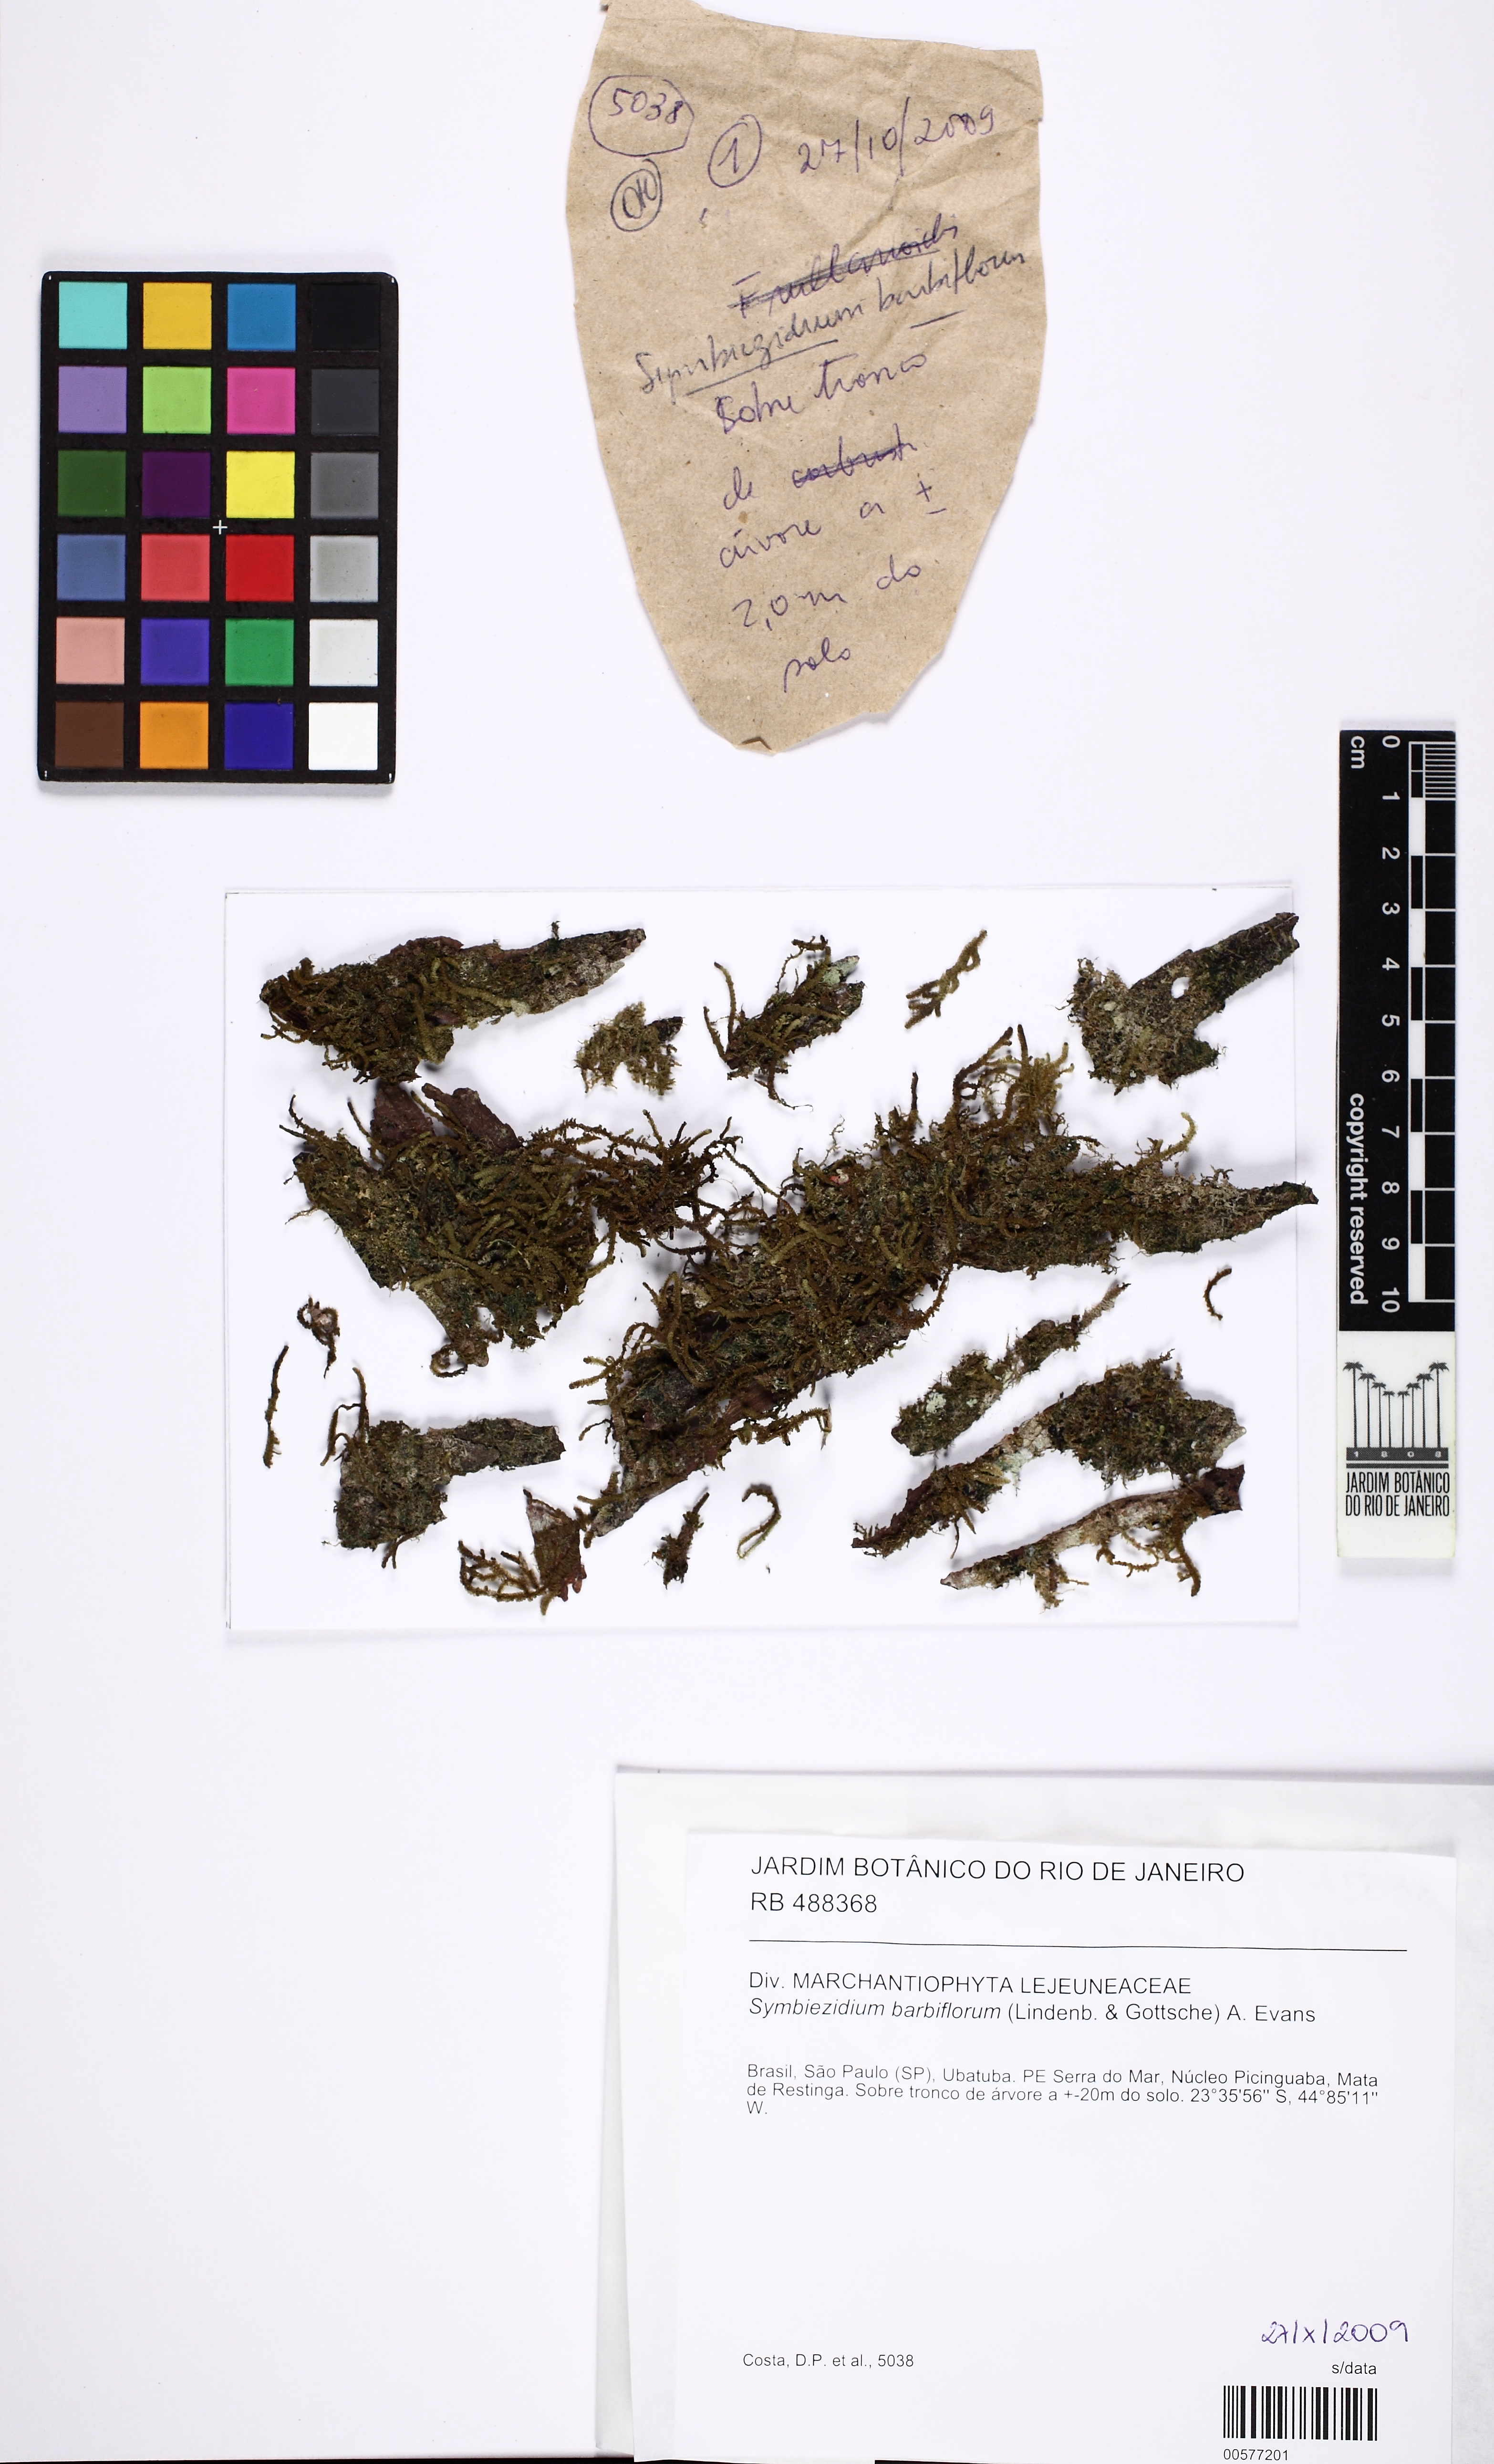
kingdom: Plantae
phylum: Marchantiophyta
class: Jungermanniopsida
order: Porellales
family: Lejeuneaceae
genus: Symbiezidium
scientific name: Symbiezidium barbiflorum
